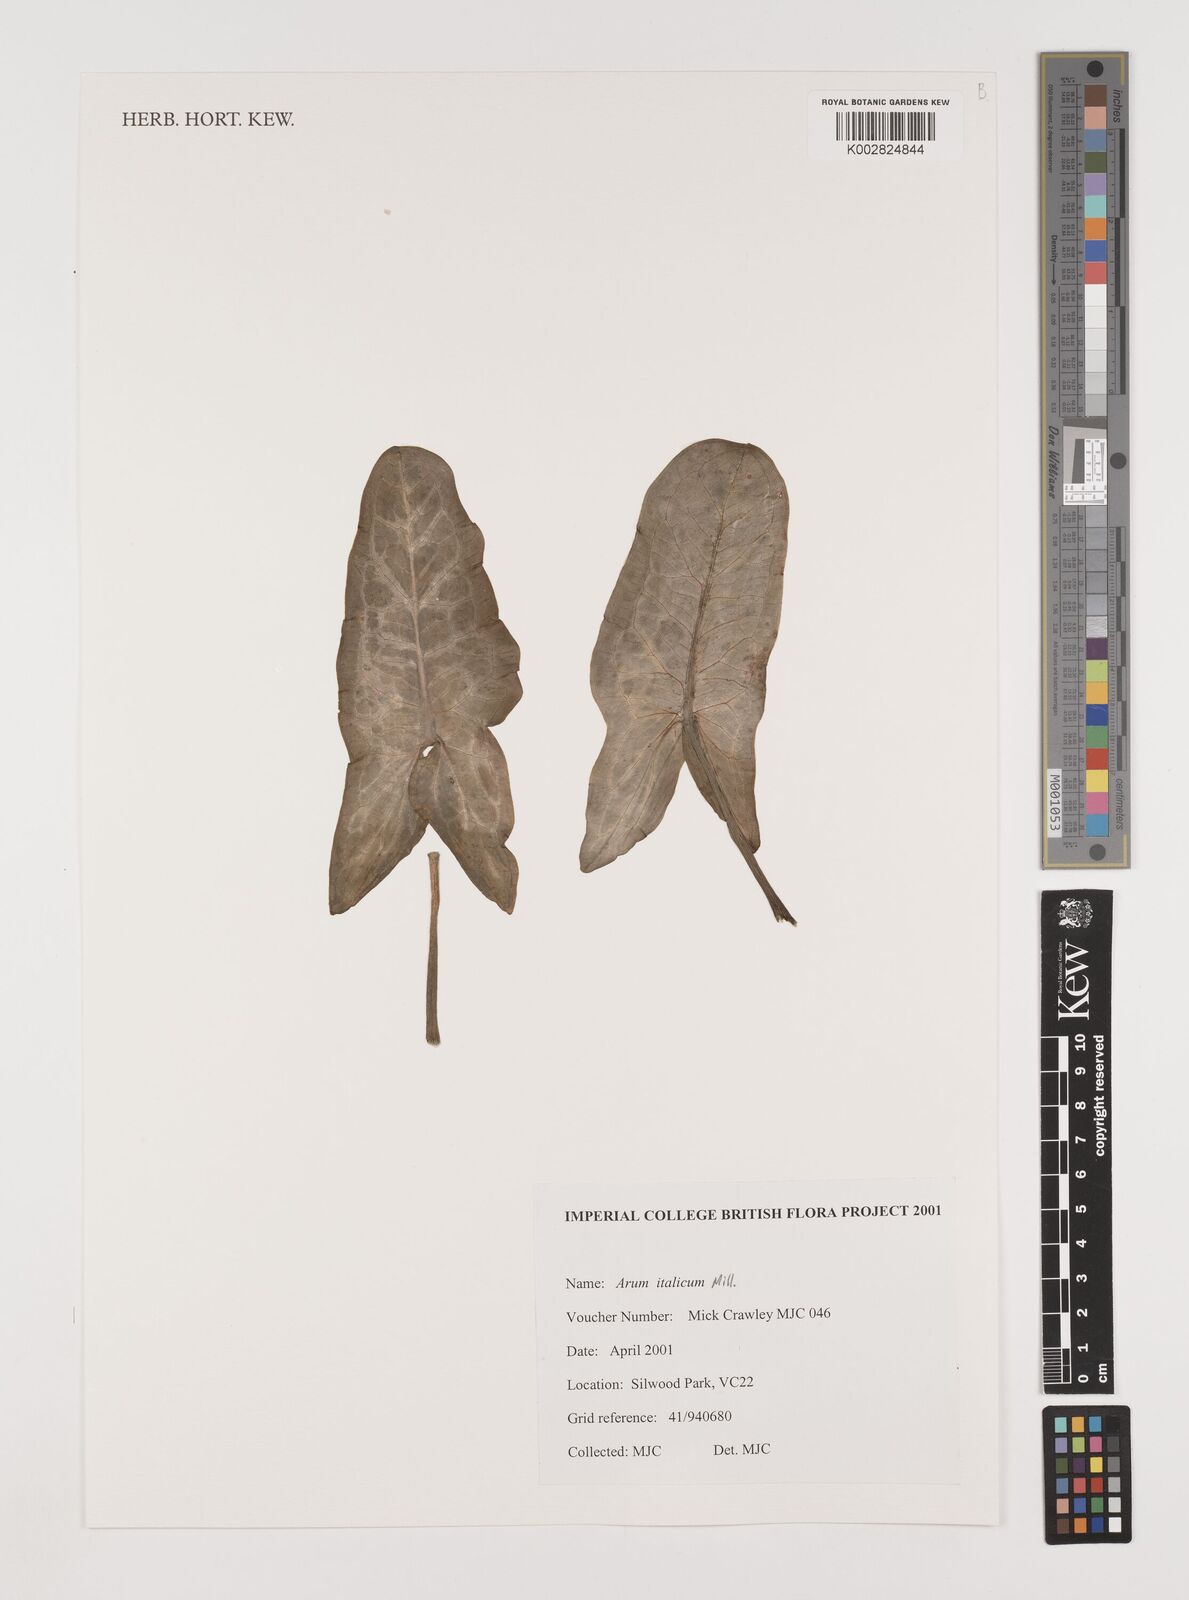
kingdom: Plantae
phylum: Tracheophyta
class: Liliopsida
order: Alismatales
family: Araceae
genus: Arum
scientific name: Arum italicum
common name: Italian lords-and-ladies
